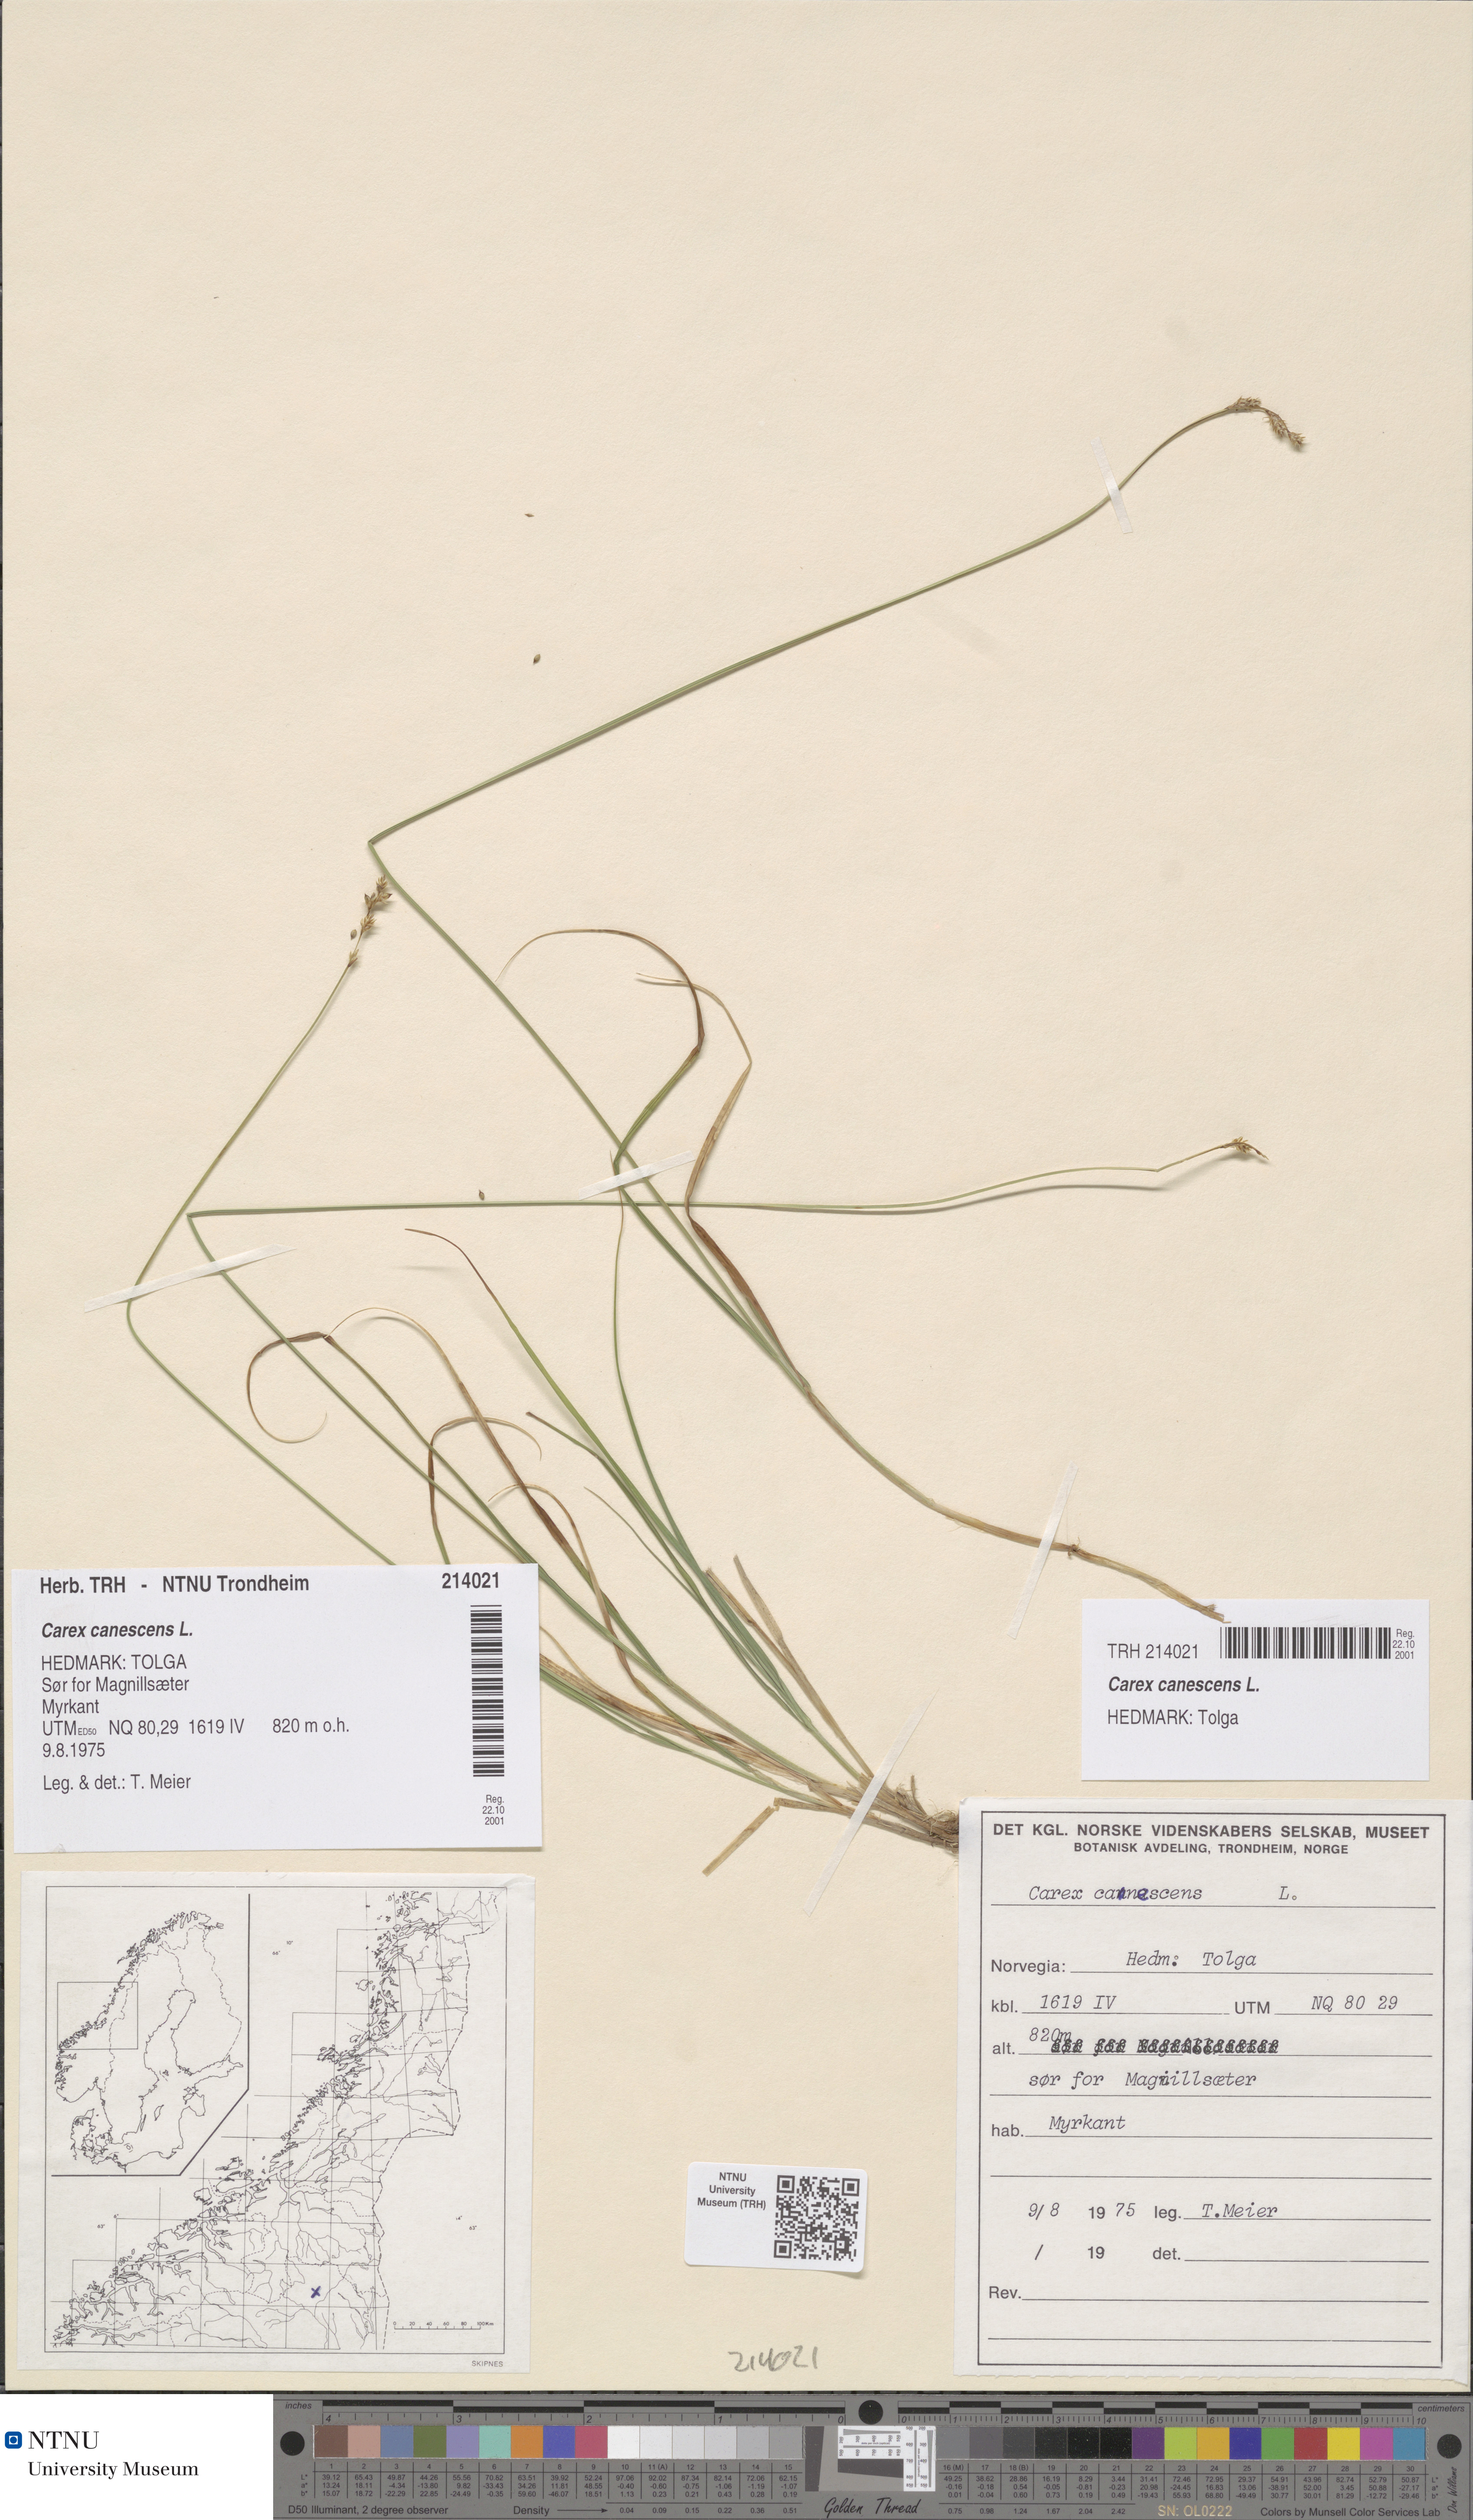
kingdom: Plantae
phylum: Tracheophyta
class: Liliopsida
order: Poales
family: Cyperaceae
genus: Carex
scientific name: Carex canescens
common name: White sedge
